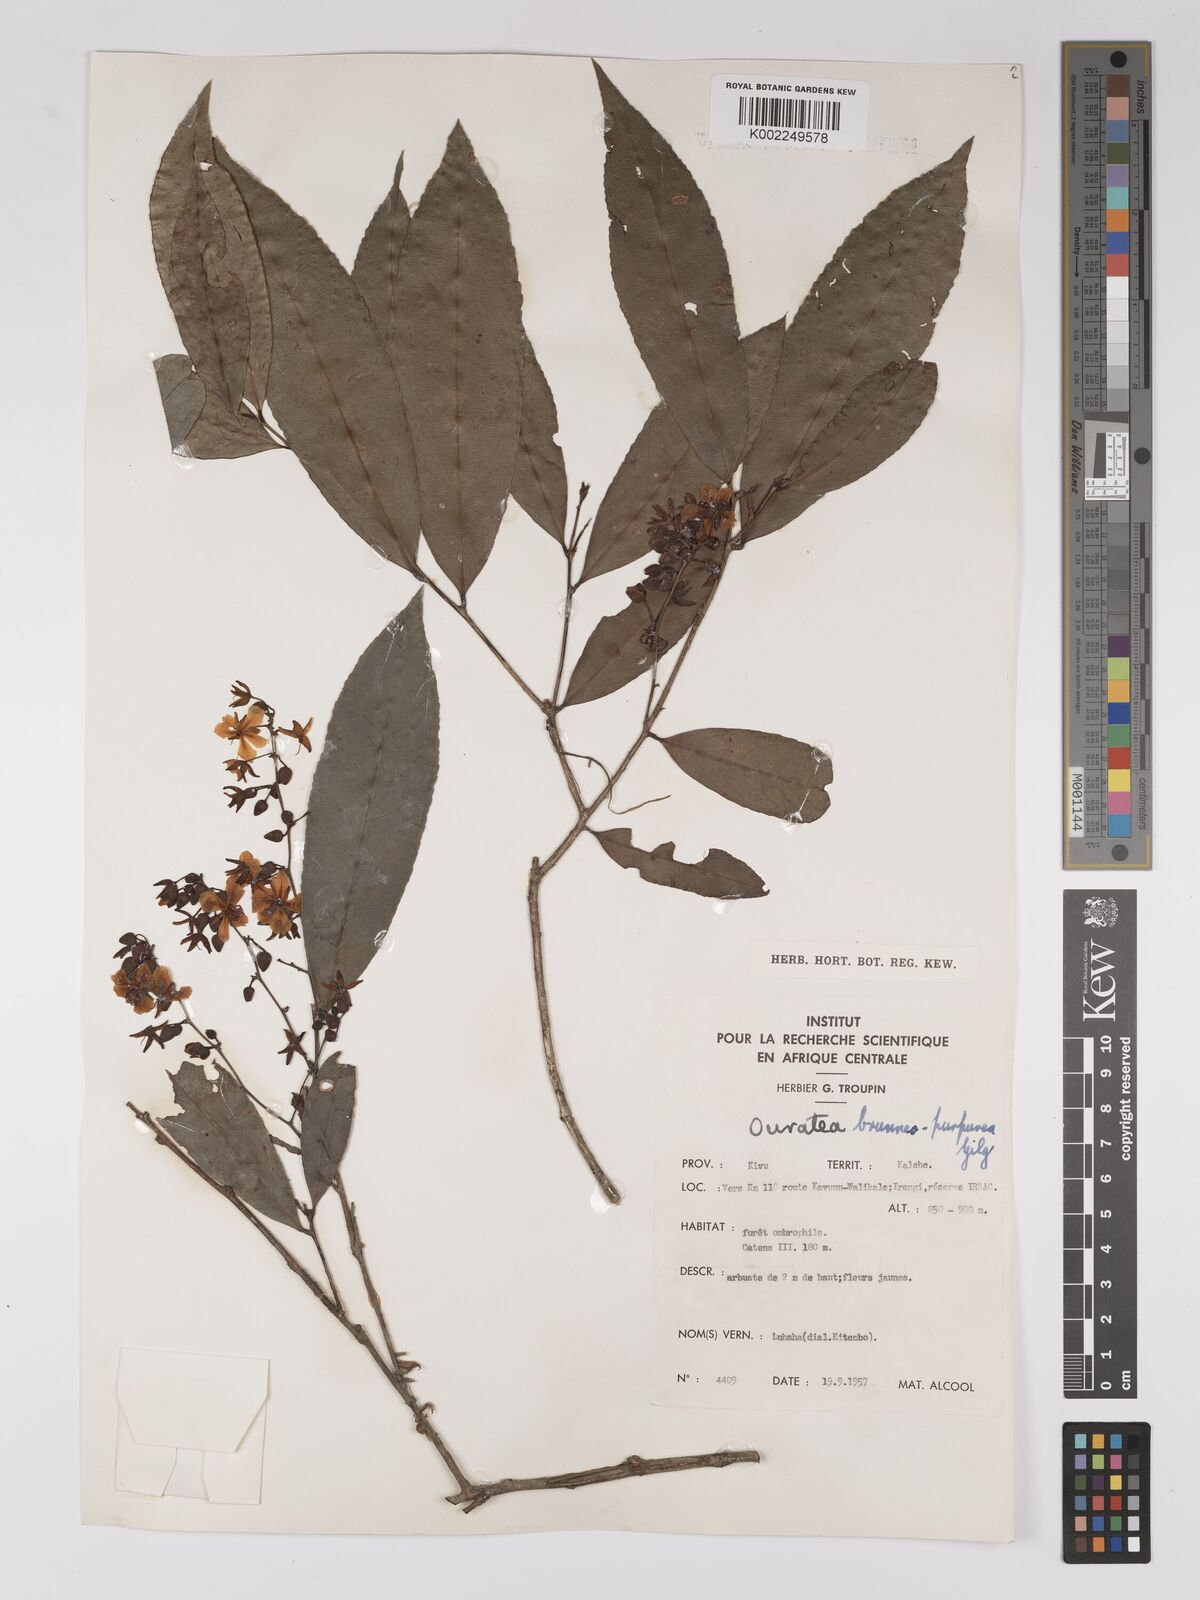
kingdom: Plantae
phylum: Tracheophyta
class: Magnoliopsida
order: Malpighiales
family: Ochnaceae
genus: Campylospermum
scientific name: Campylospermum reticulatum
